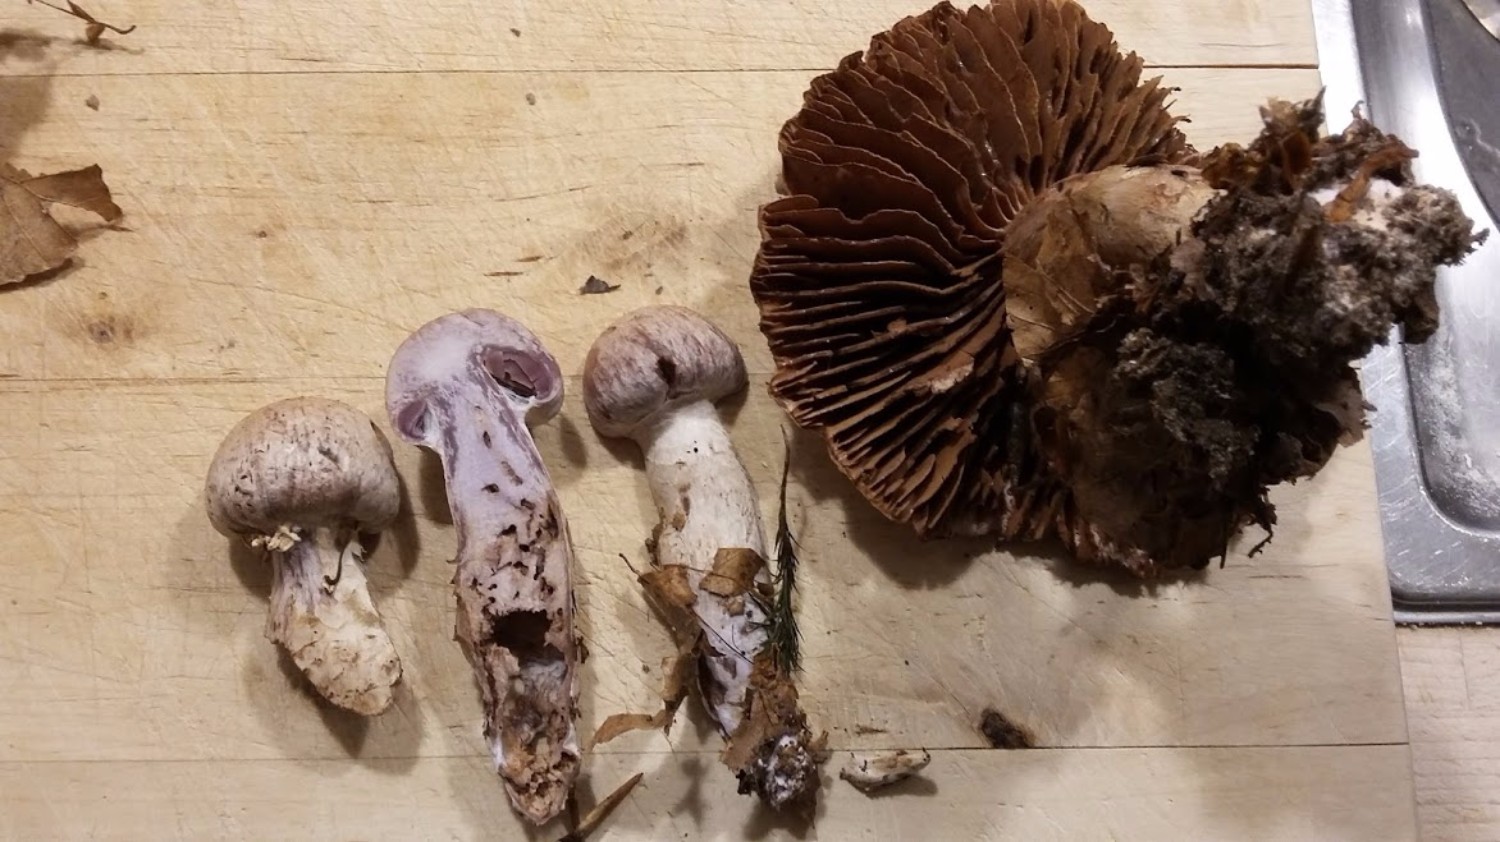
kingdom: Fungi
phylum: Basidiomycota
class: Agaricomycetes
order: Agaricales
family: Cortinariaceae
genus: Cortinarius
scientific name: Cortinarius
